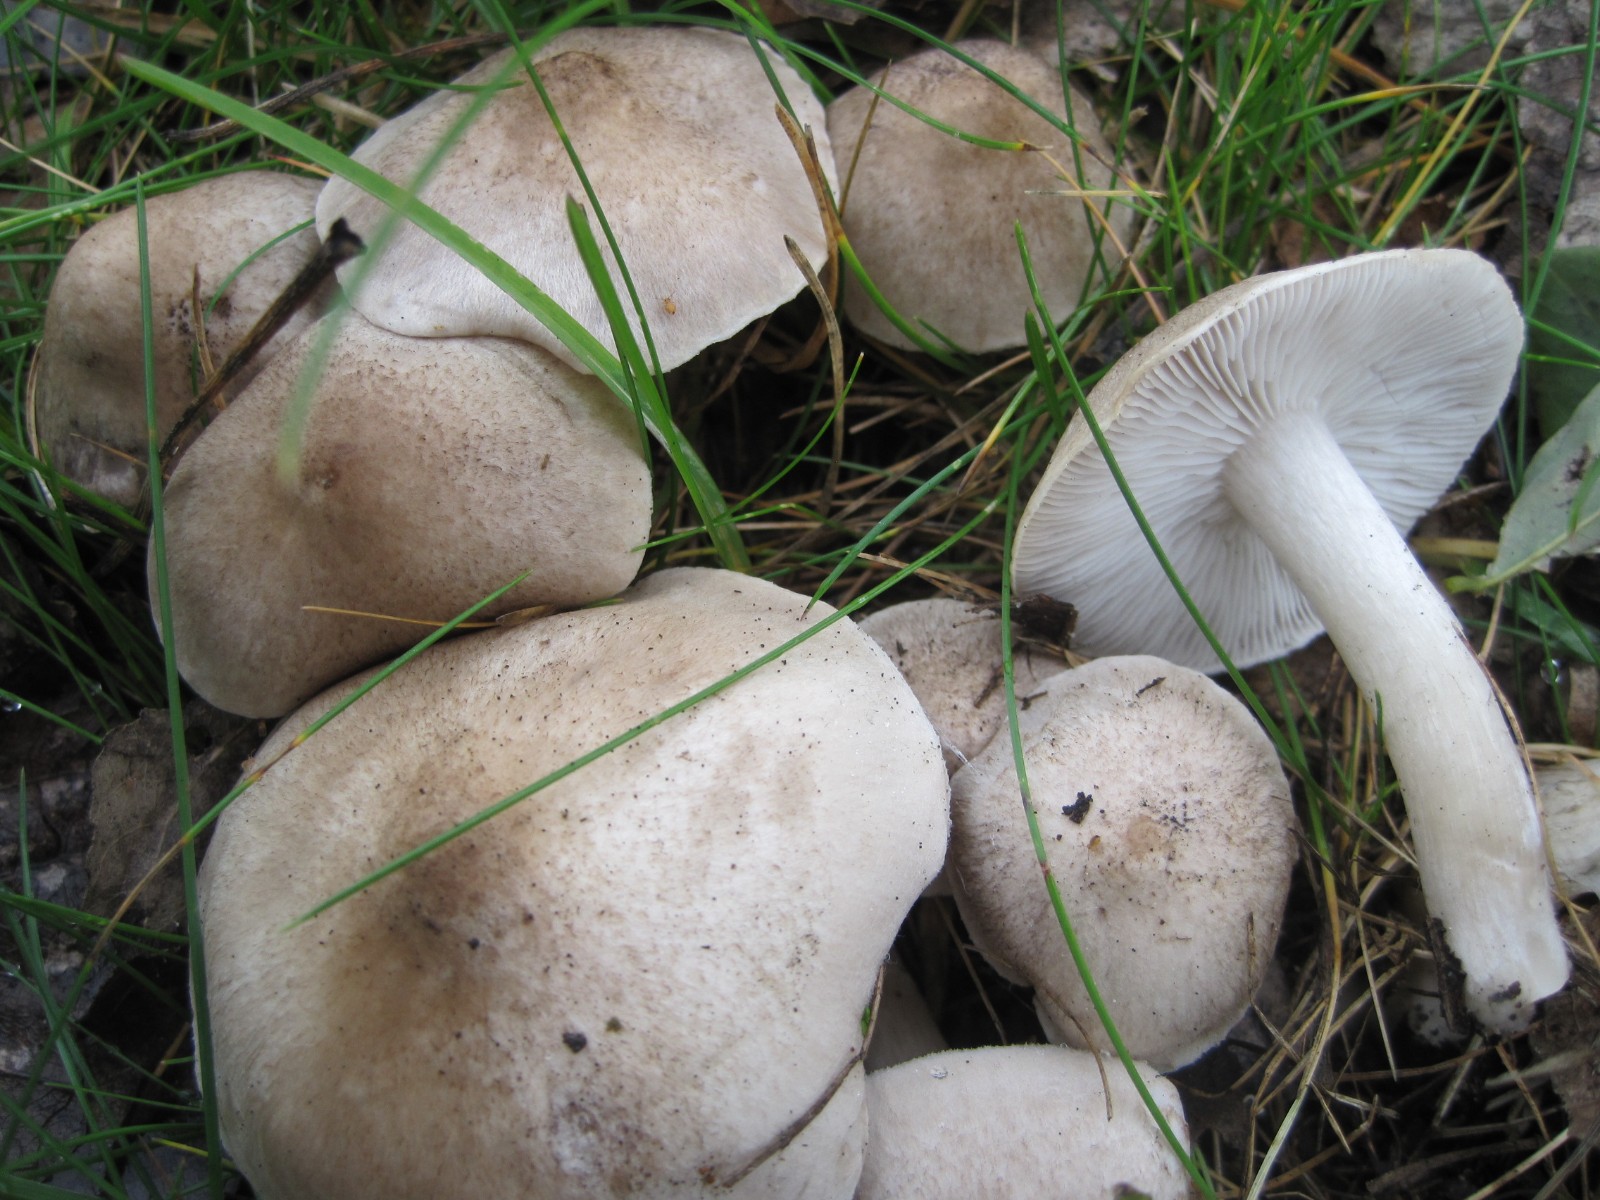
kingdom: Fungi
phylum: Basidiomycota
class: Agaricomycetes
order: Agaricales
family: Tricholomataceae
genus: Tricholoma
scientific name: Tricholoma argyraceum
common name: spids ridderhat
